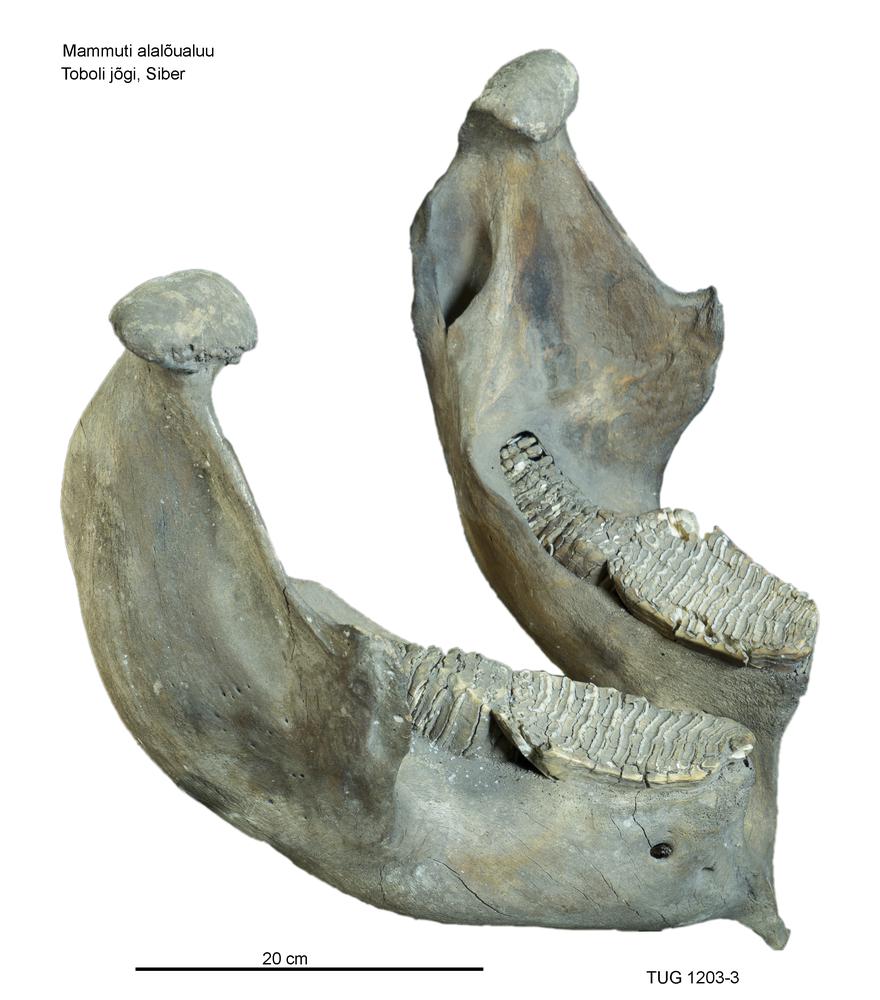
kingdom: Animalia
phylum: Chordata
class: Mammalia
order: Proboscidea
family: Elephantidae
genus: Mammuthus
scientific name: Mammuthus primigenius
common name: Wooly mammoth
